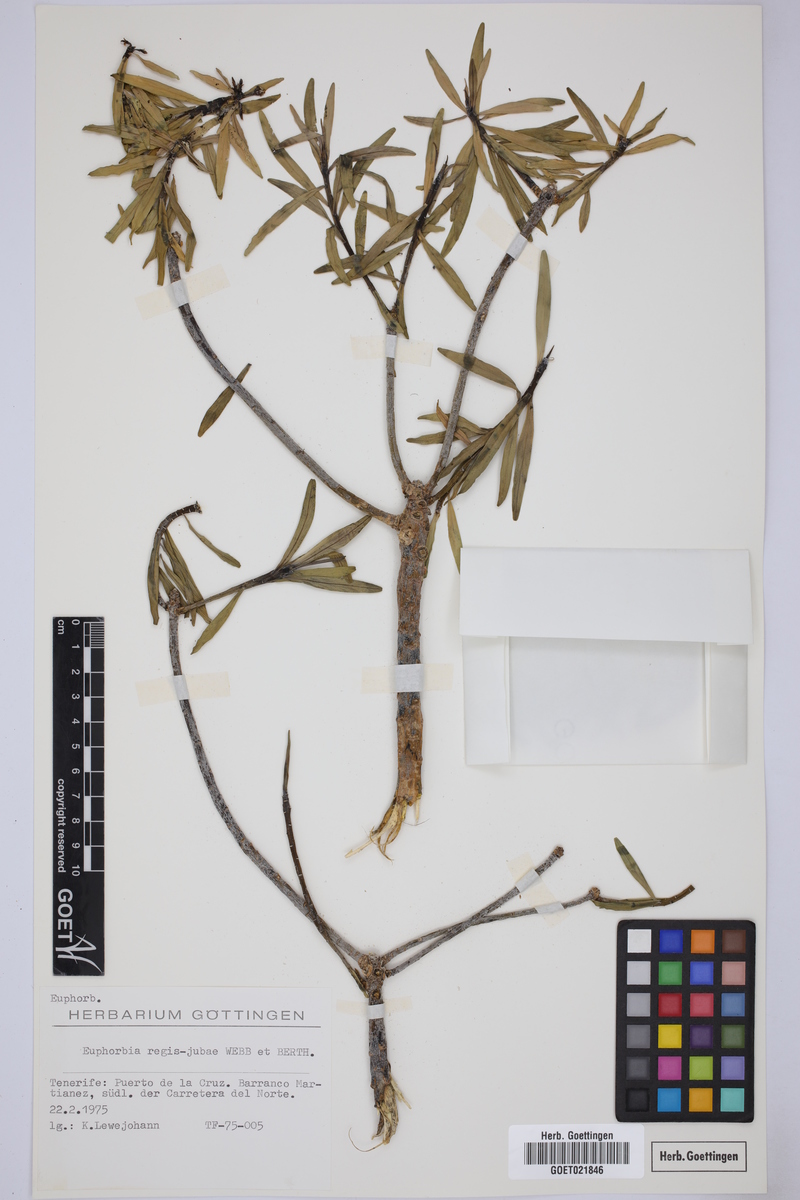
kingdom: Plantae
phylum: Tracheophyta
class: Magnoliopsida
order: Malpighiales
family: Euphorbiaceae
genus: Euphorbia
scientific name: Euphorbia regis-jubae
